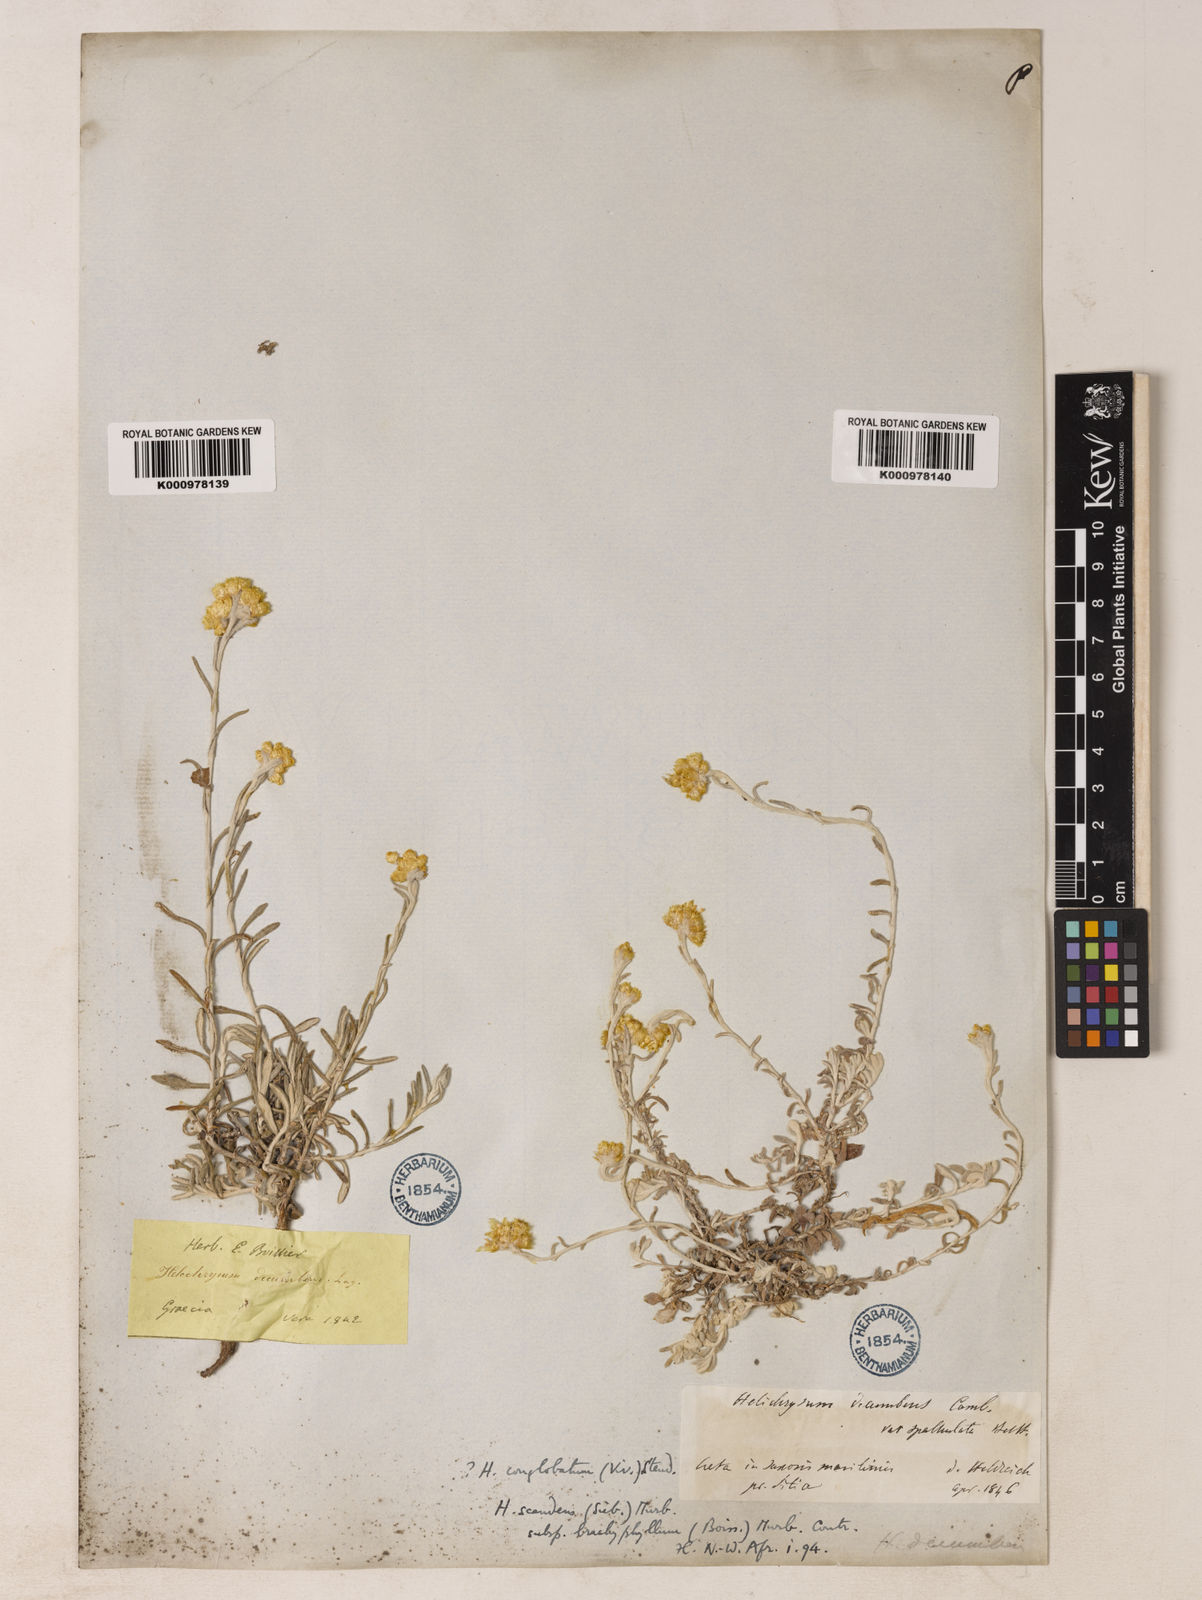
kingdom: Plantae
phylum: Tracheophyta
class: Magnoliopsida
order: Asterales
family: Asteraceae
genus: Helichrysum
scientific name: Helichrysum
